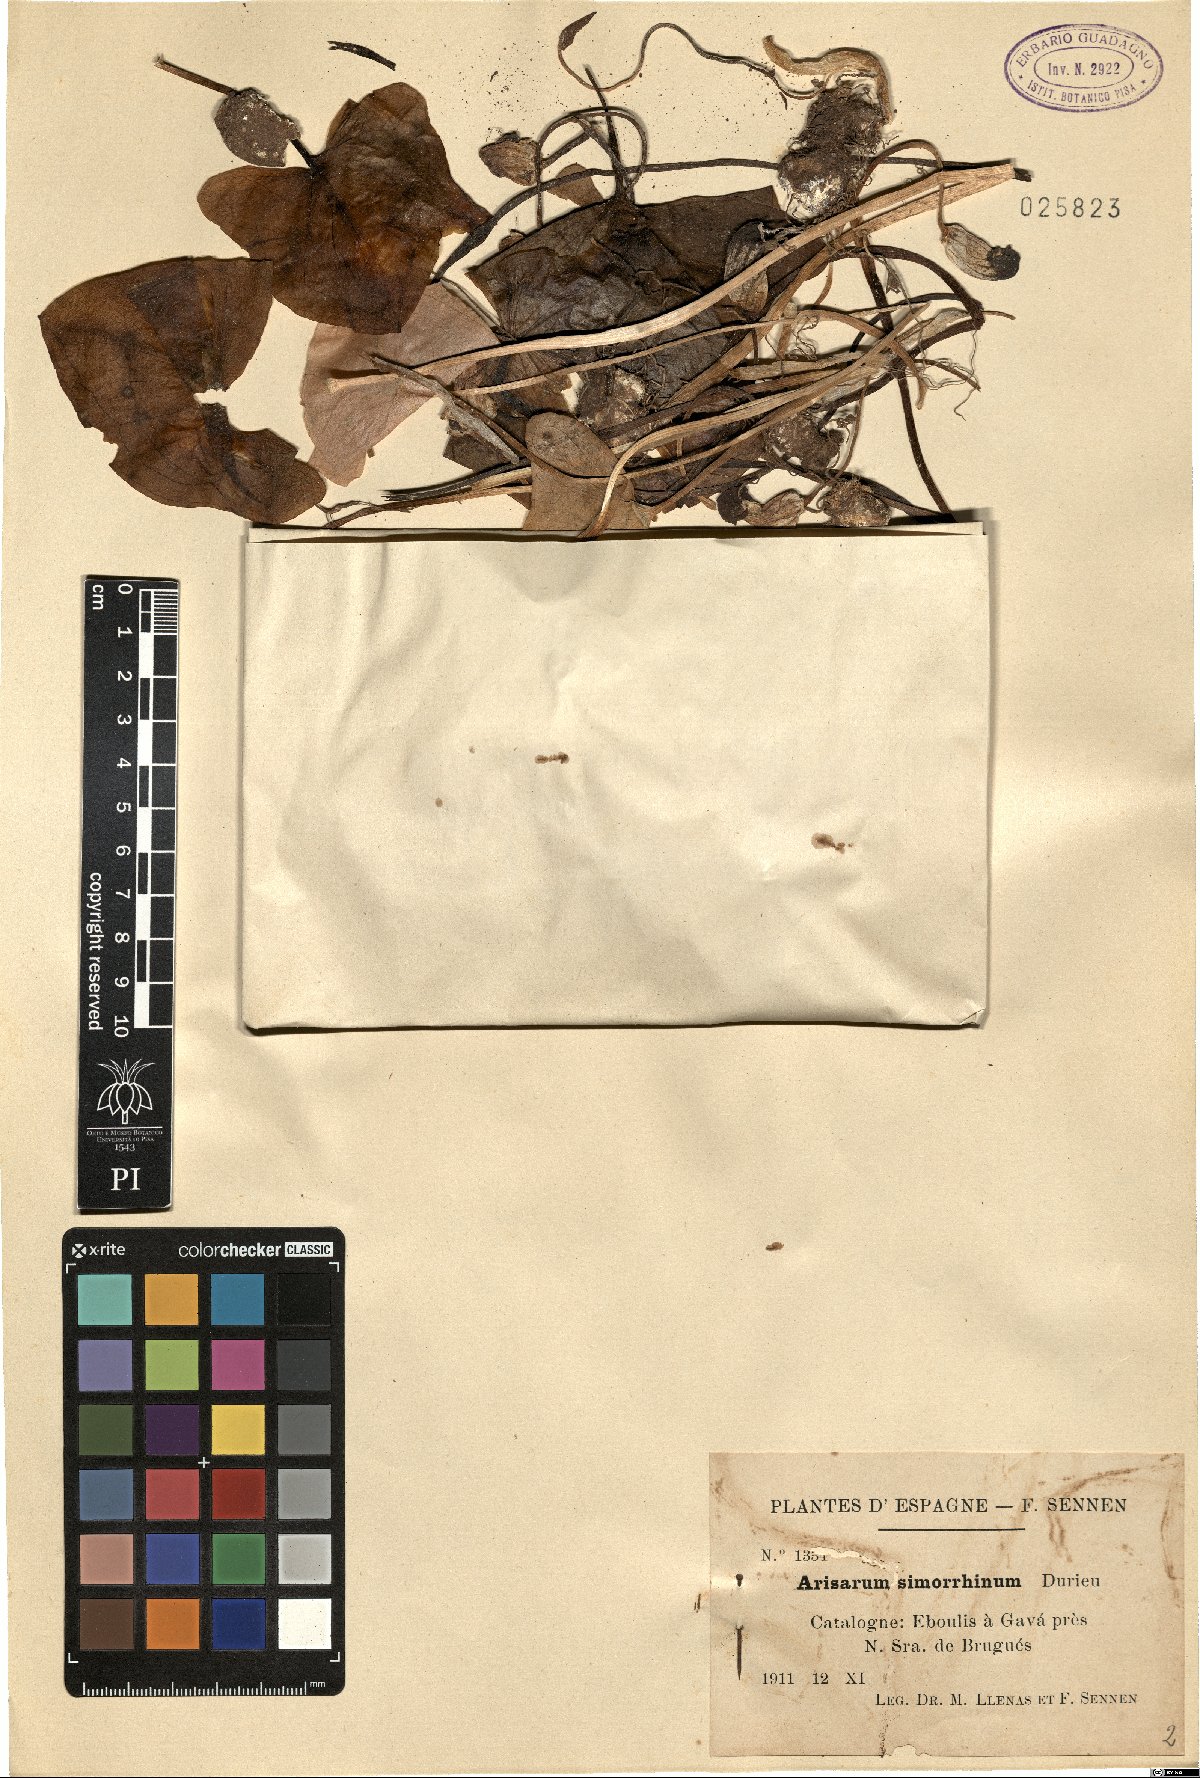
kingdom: Plantae
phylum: Tracheophyta
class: Liliopsida
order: Alismatales
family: Araceae
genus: Arisarum
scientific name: Arisarum simorrhinum
